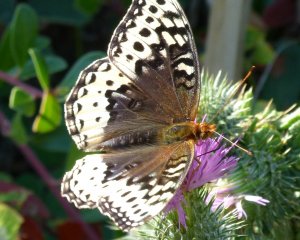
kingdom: Animalia
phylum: Arthropoda
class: Insecta
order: Lepidoptera
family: Nymphalidae
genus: Speyeria
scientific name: Speyeria cybele
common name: Great Spangled Fritillary
